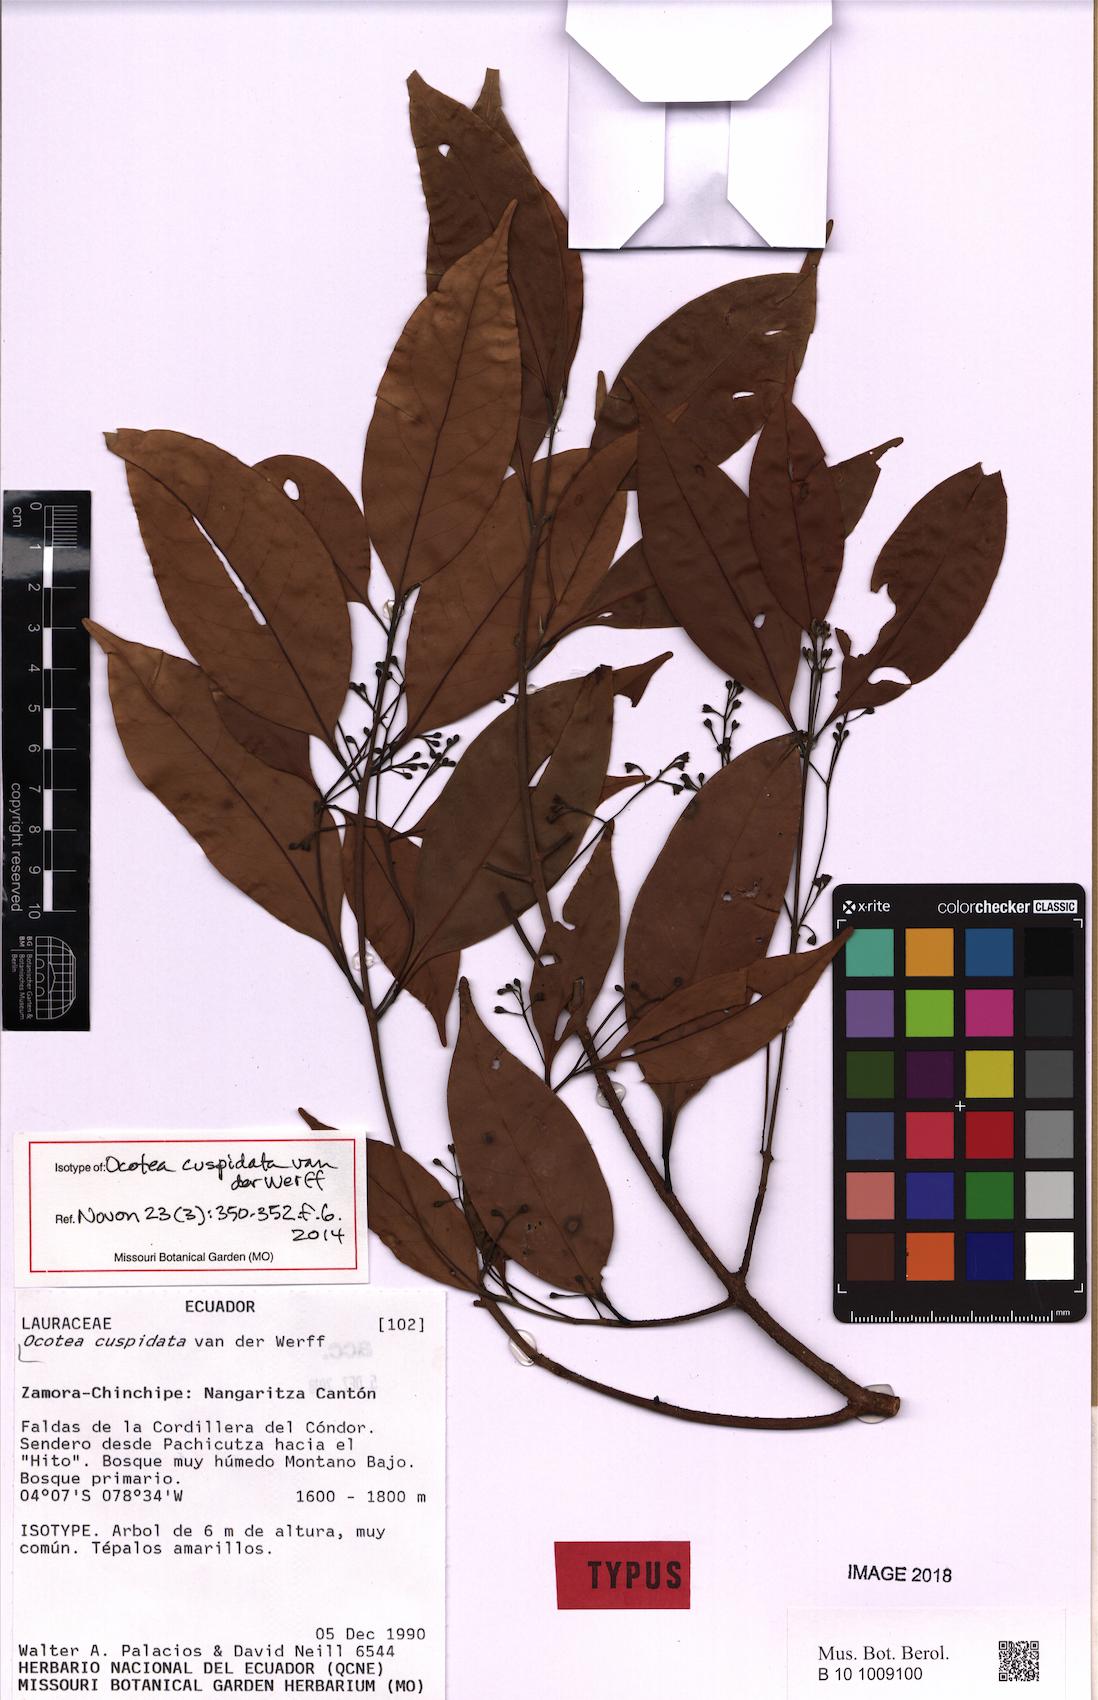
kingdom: Plantae
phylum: Tracheophyta
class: Magnoliopsida
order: Laurales
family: Lauraceae
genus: Ocotea
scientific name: Ocotea cuspidata
